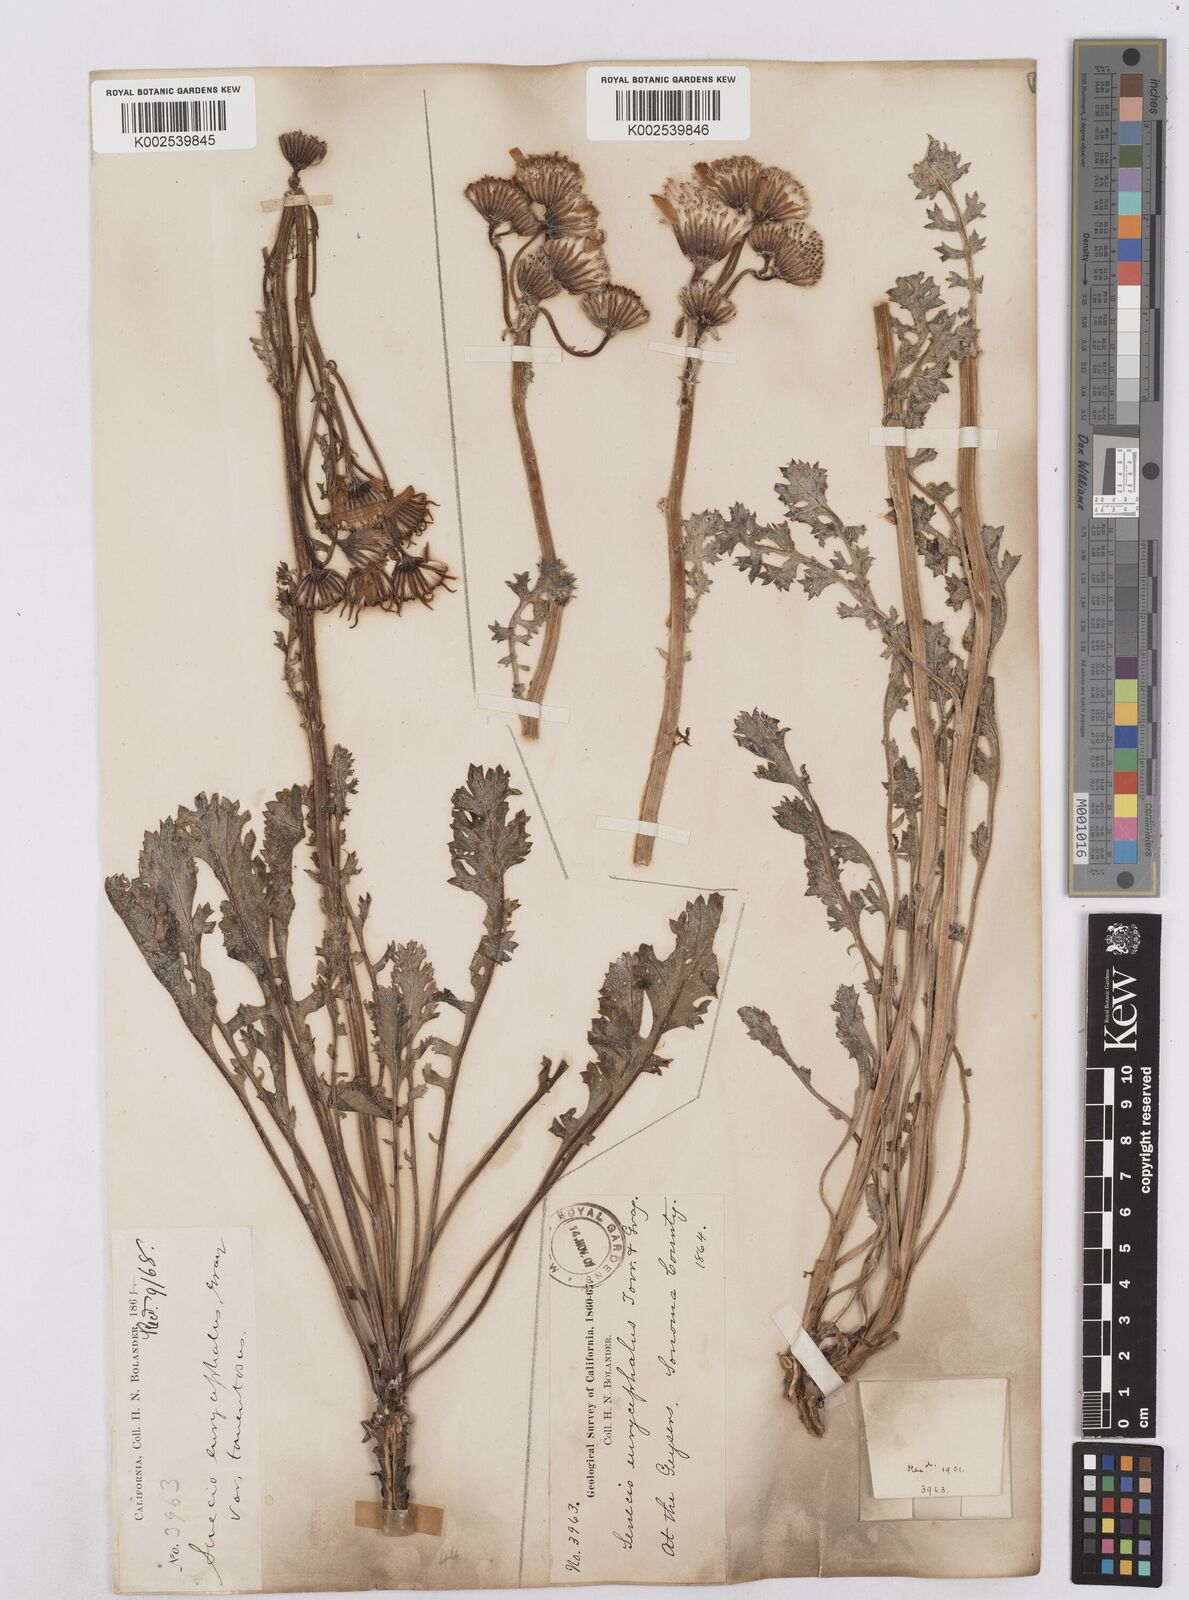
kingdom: Plantae
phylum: Tracheophyta
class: Magnoliopsida
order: Asterales
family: Asteraceae
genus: Packera
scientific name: Packera eurycephala
